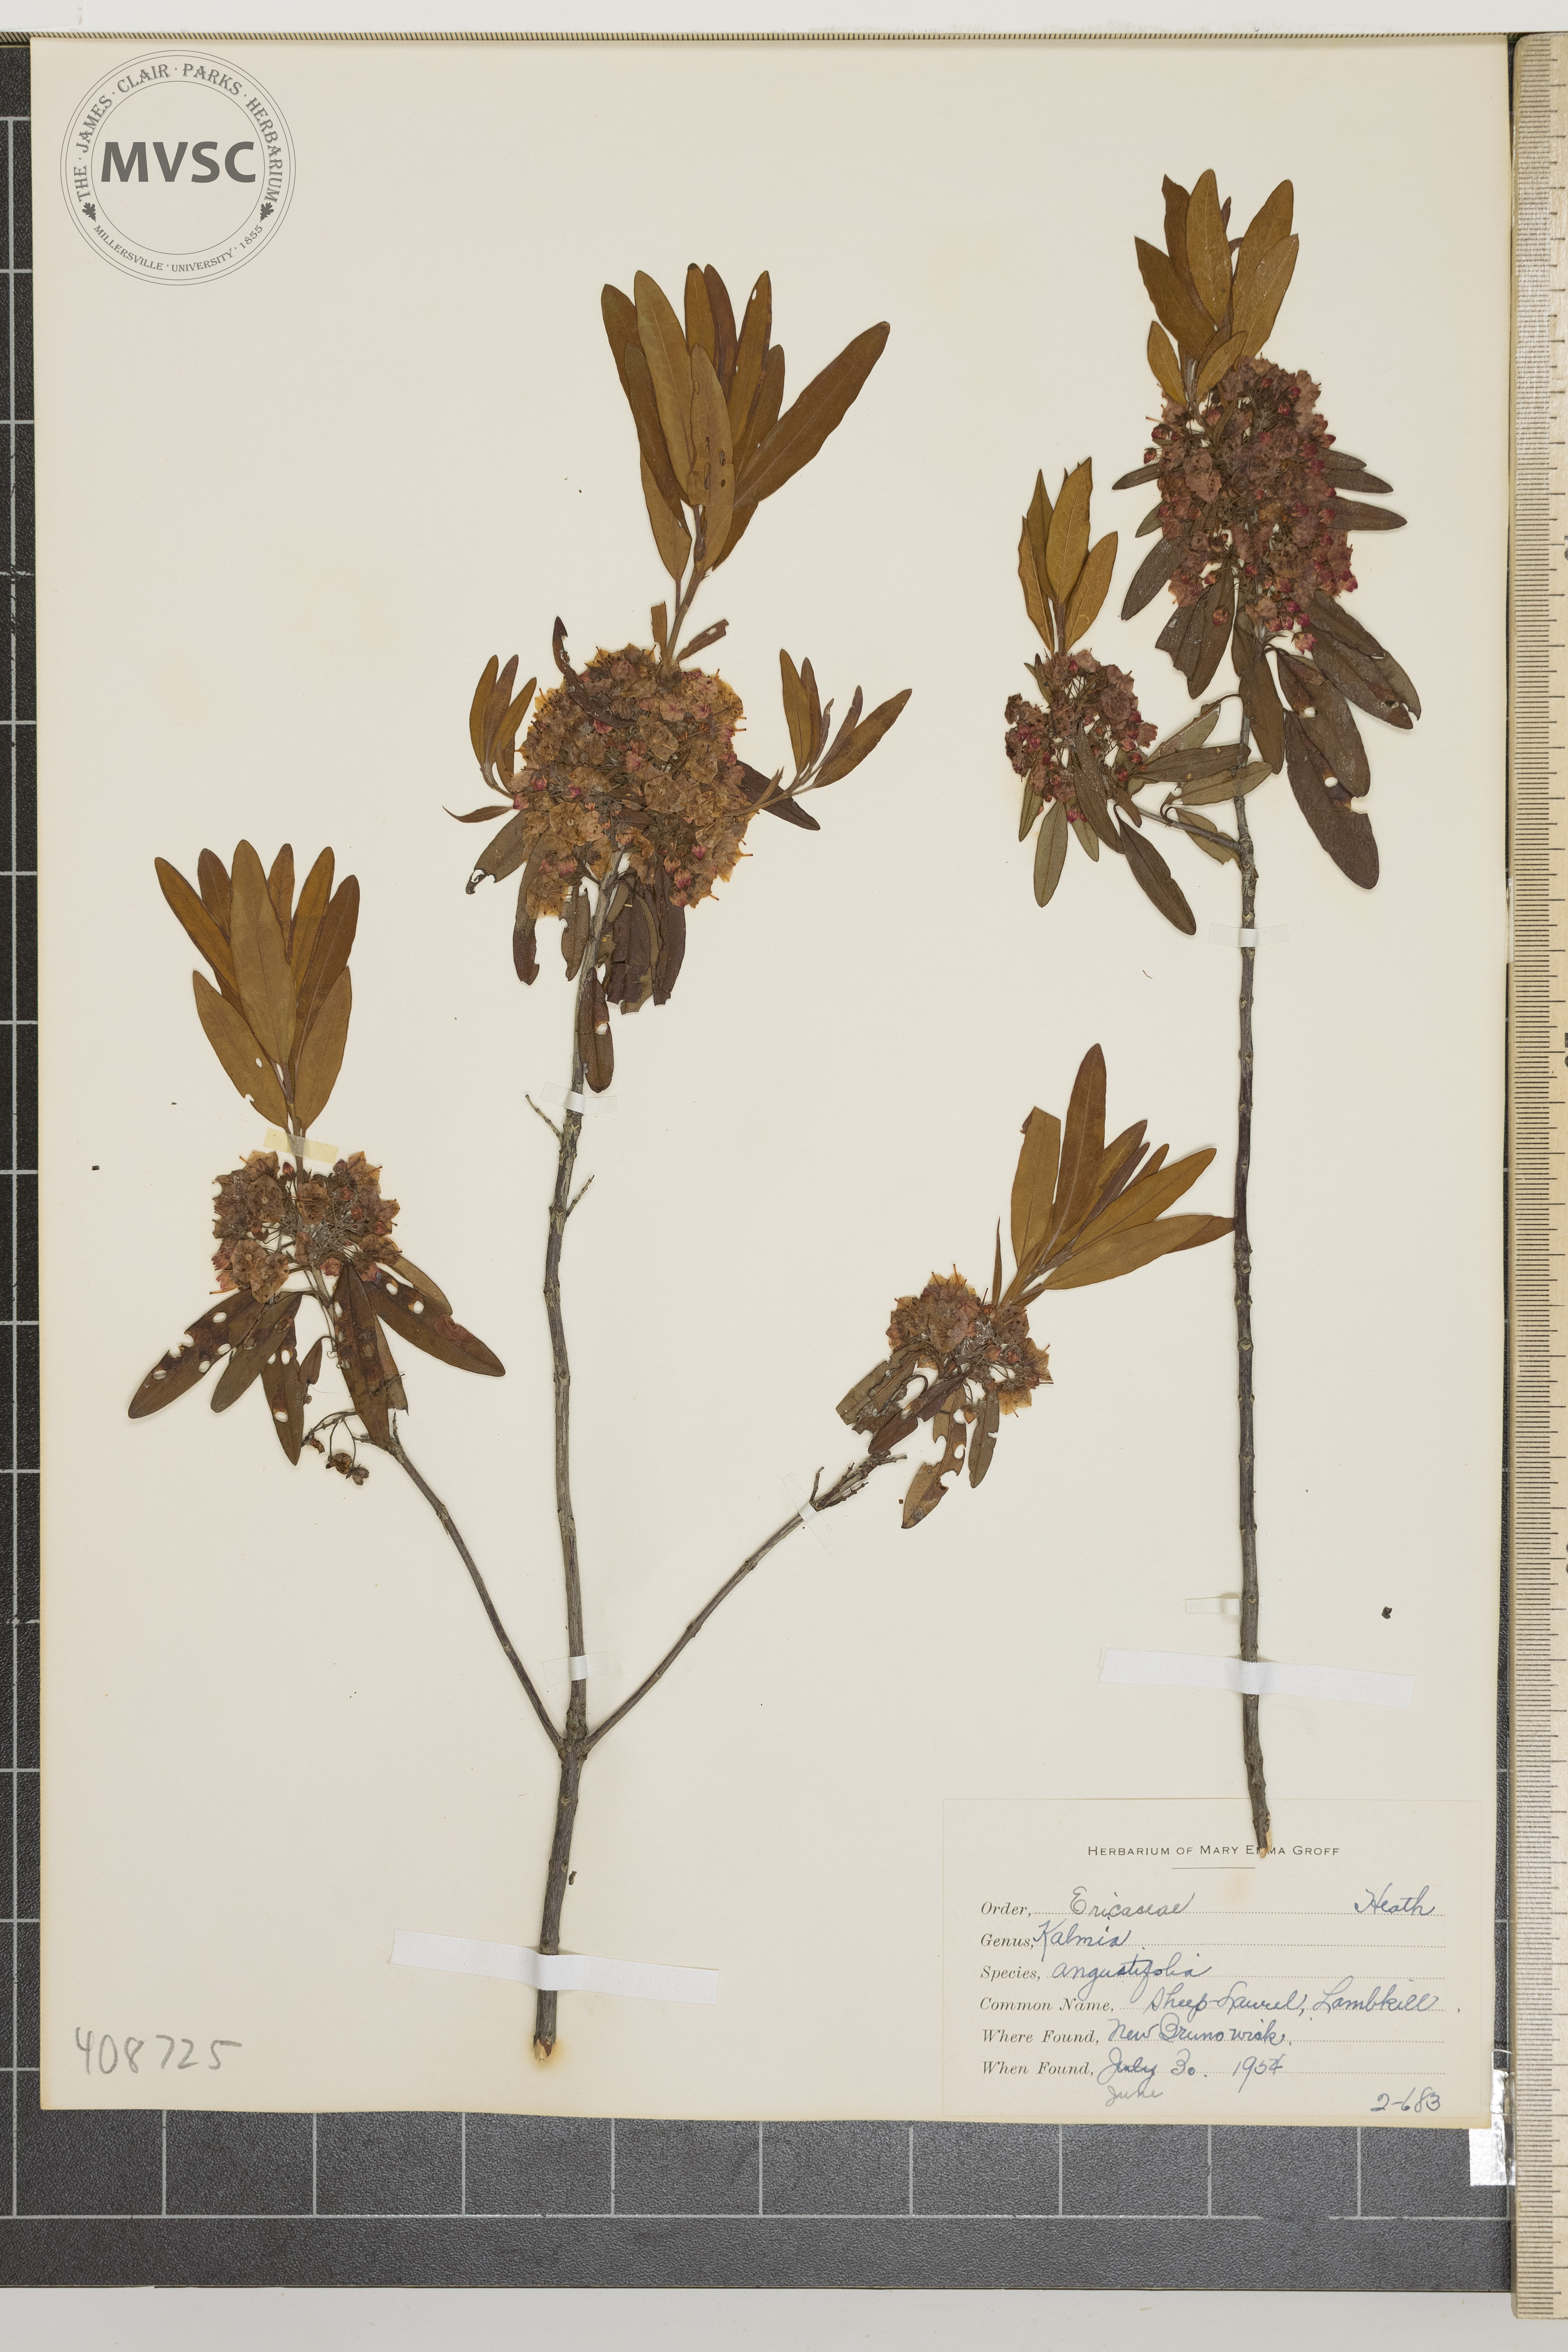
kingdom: Plantae
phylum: Tracheophyta
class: Magnoliopsida
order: Ericales
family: Ericaceae
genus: Kalmia
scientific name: Kalmia angustifolia
